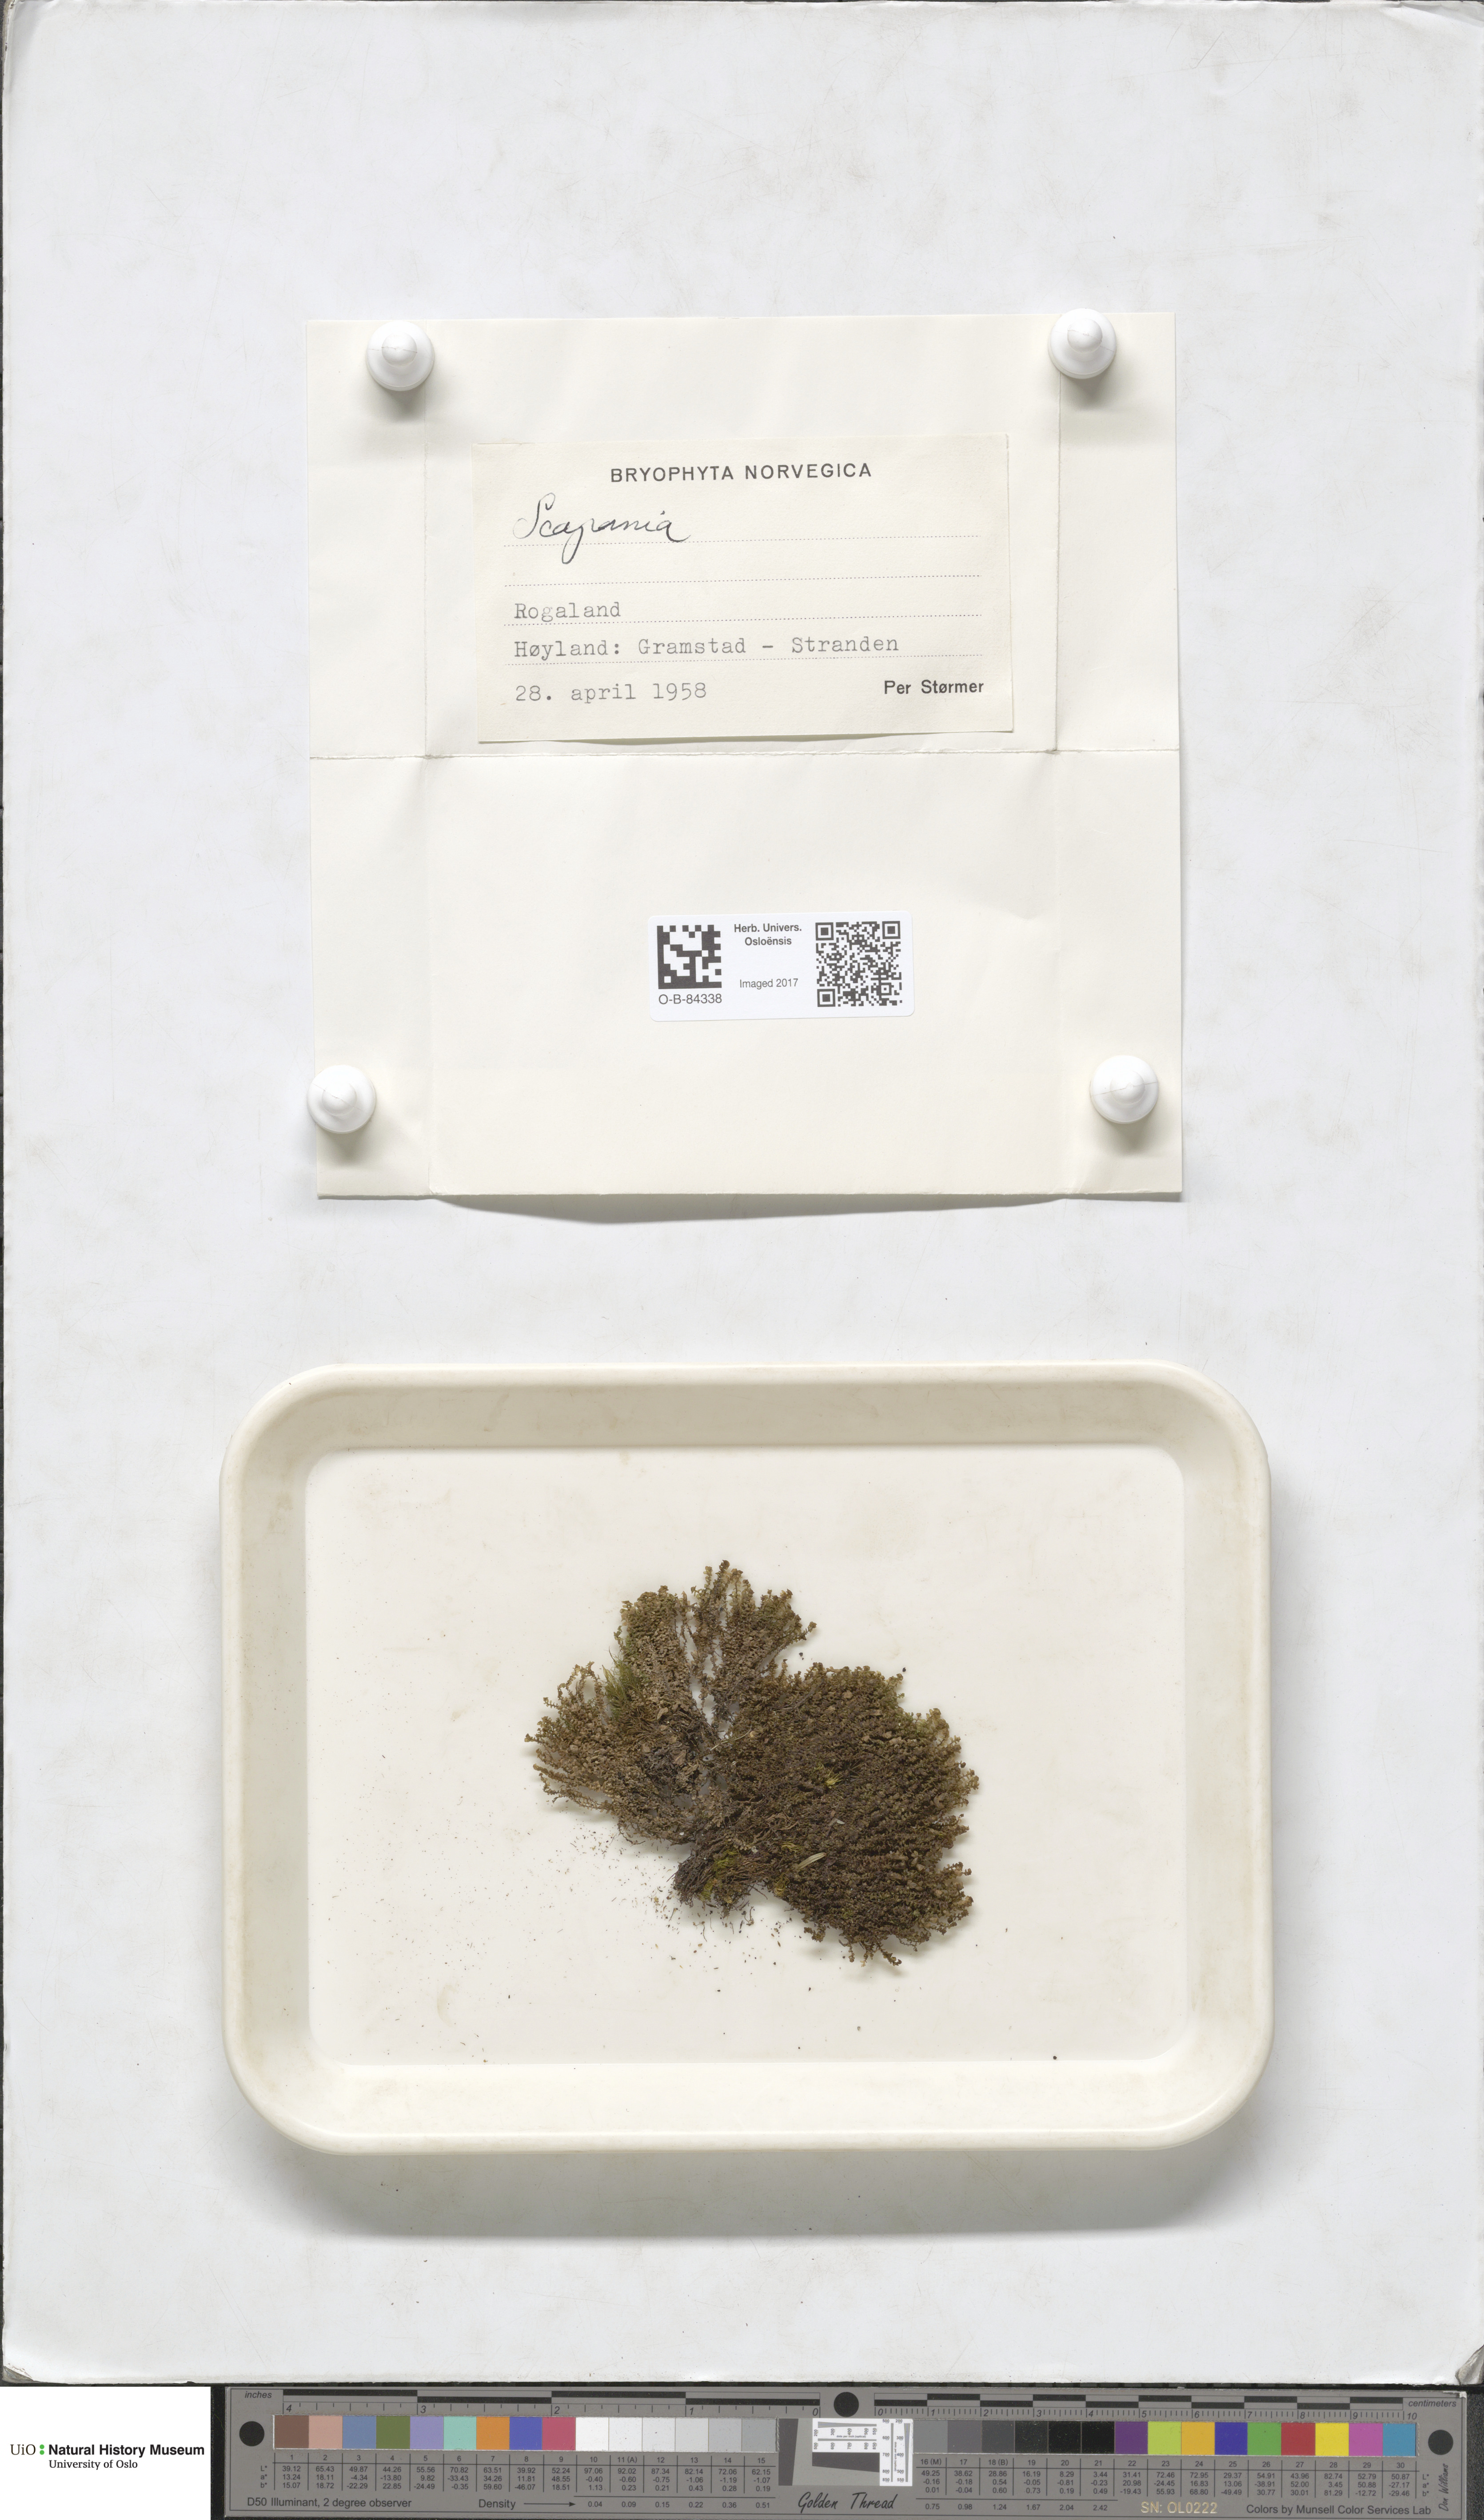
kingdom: Plantae
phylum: Marchantiophyta
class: Jungermanniopsida
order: Jungermanniales
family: Scapaniaceae
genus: Scapania
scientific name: Scapania
